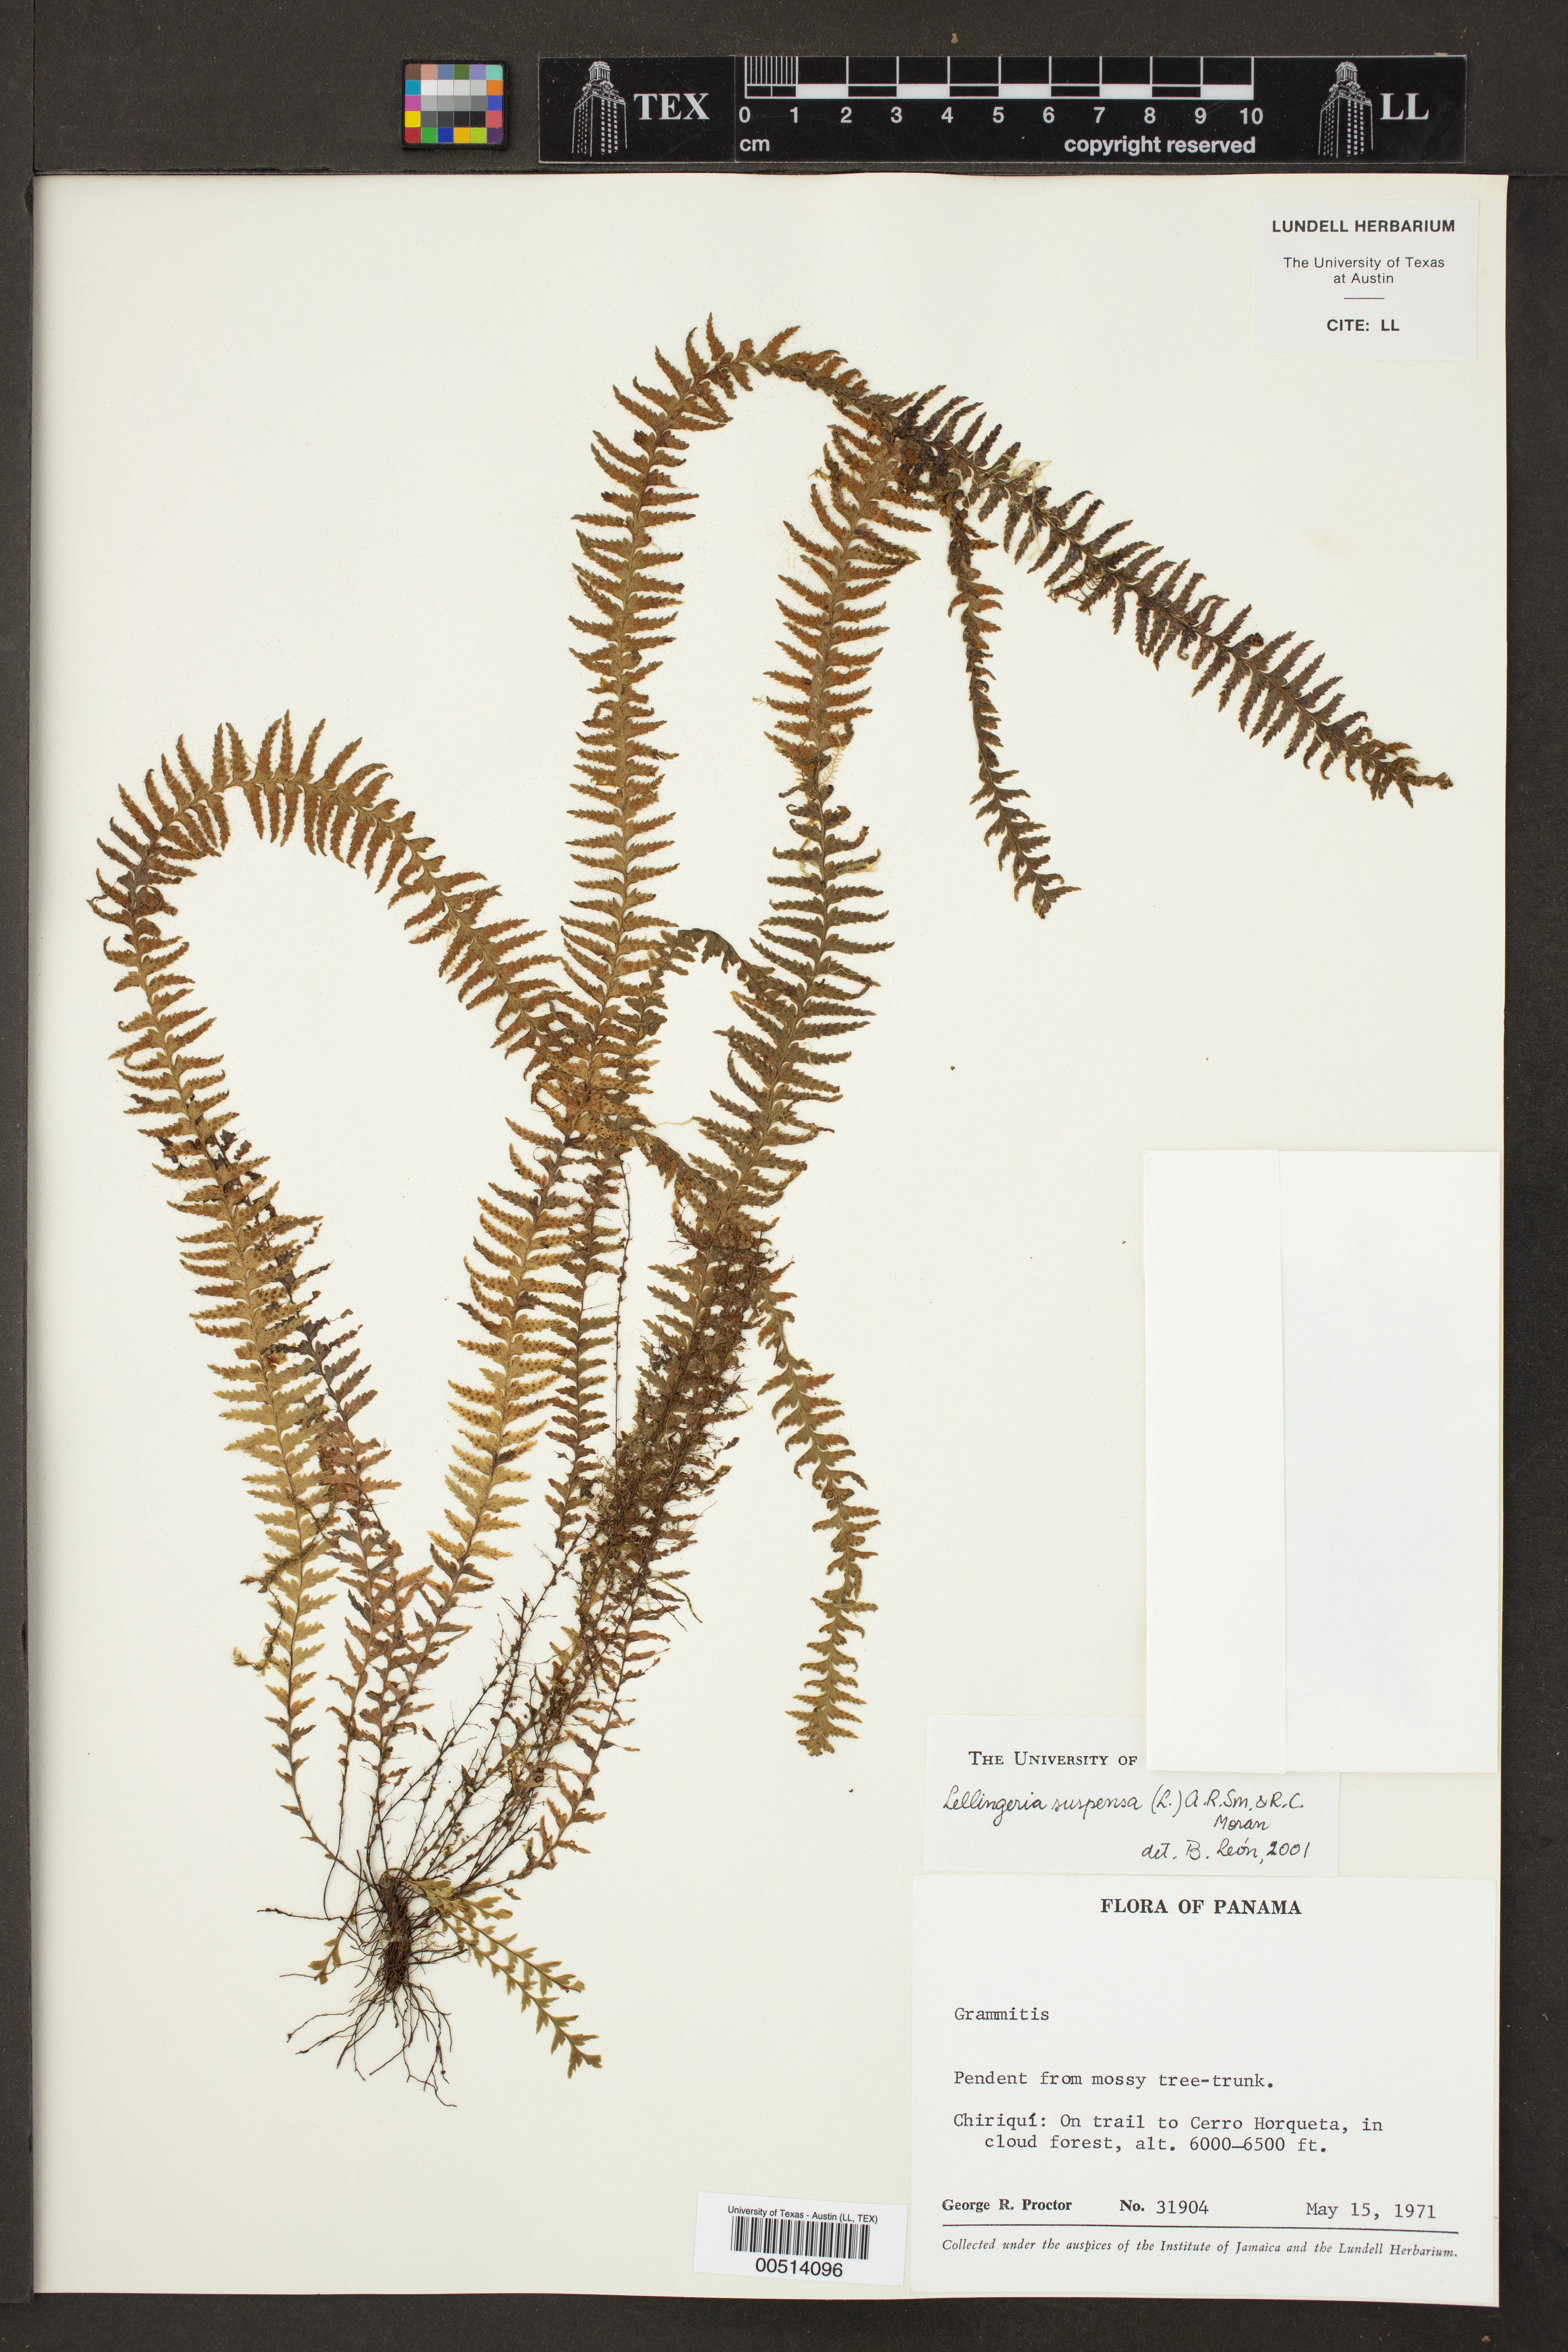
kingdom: Plantae
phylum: Tracheophyta
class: Polypodiopsida
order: Polypodiales
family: Polypodiaceae
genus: Lellingeria
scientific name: Lellingeria suspensa
